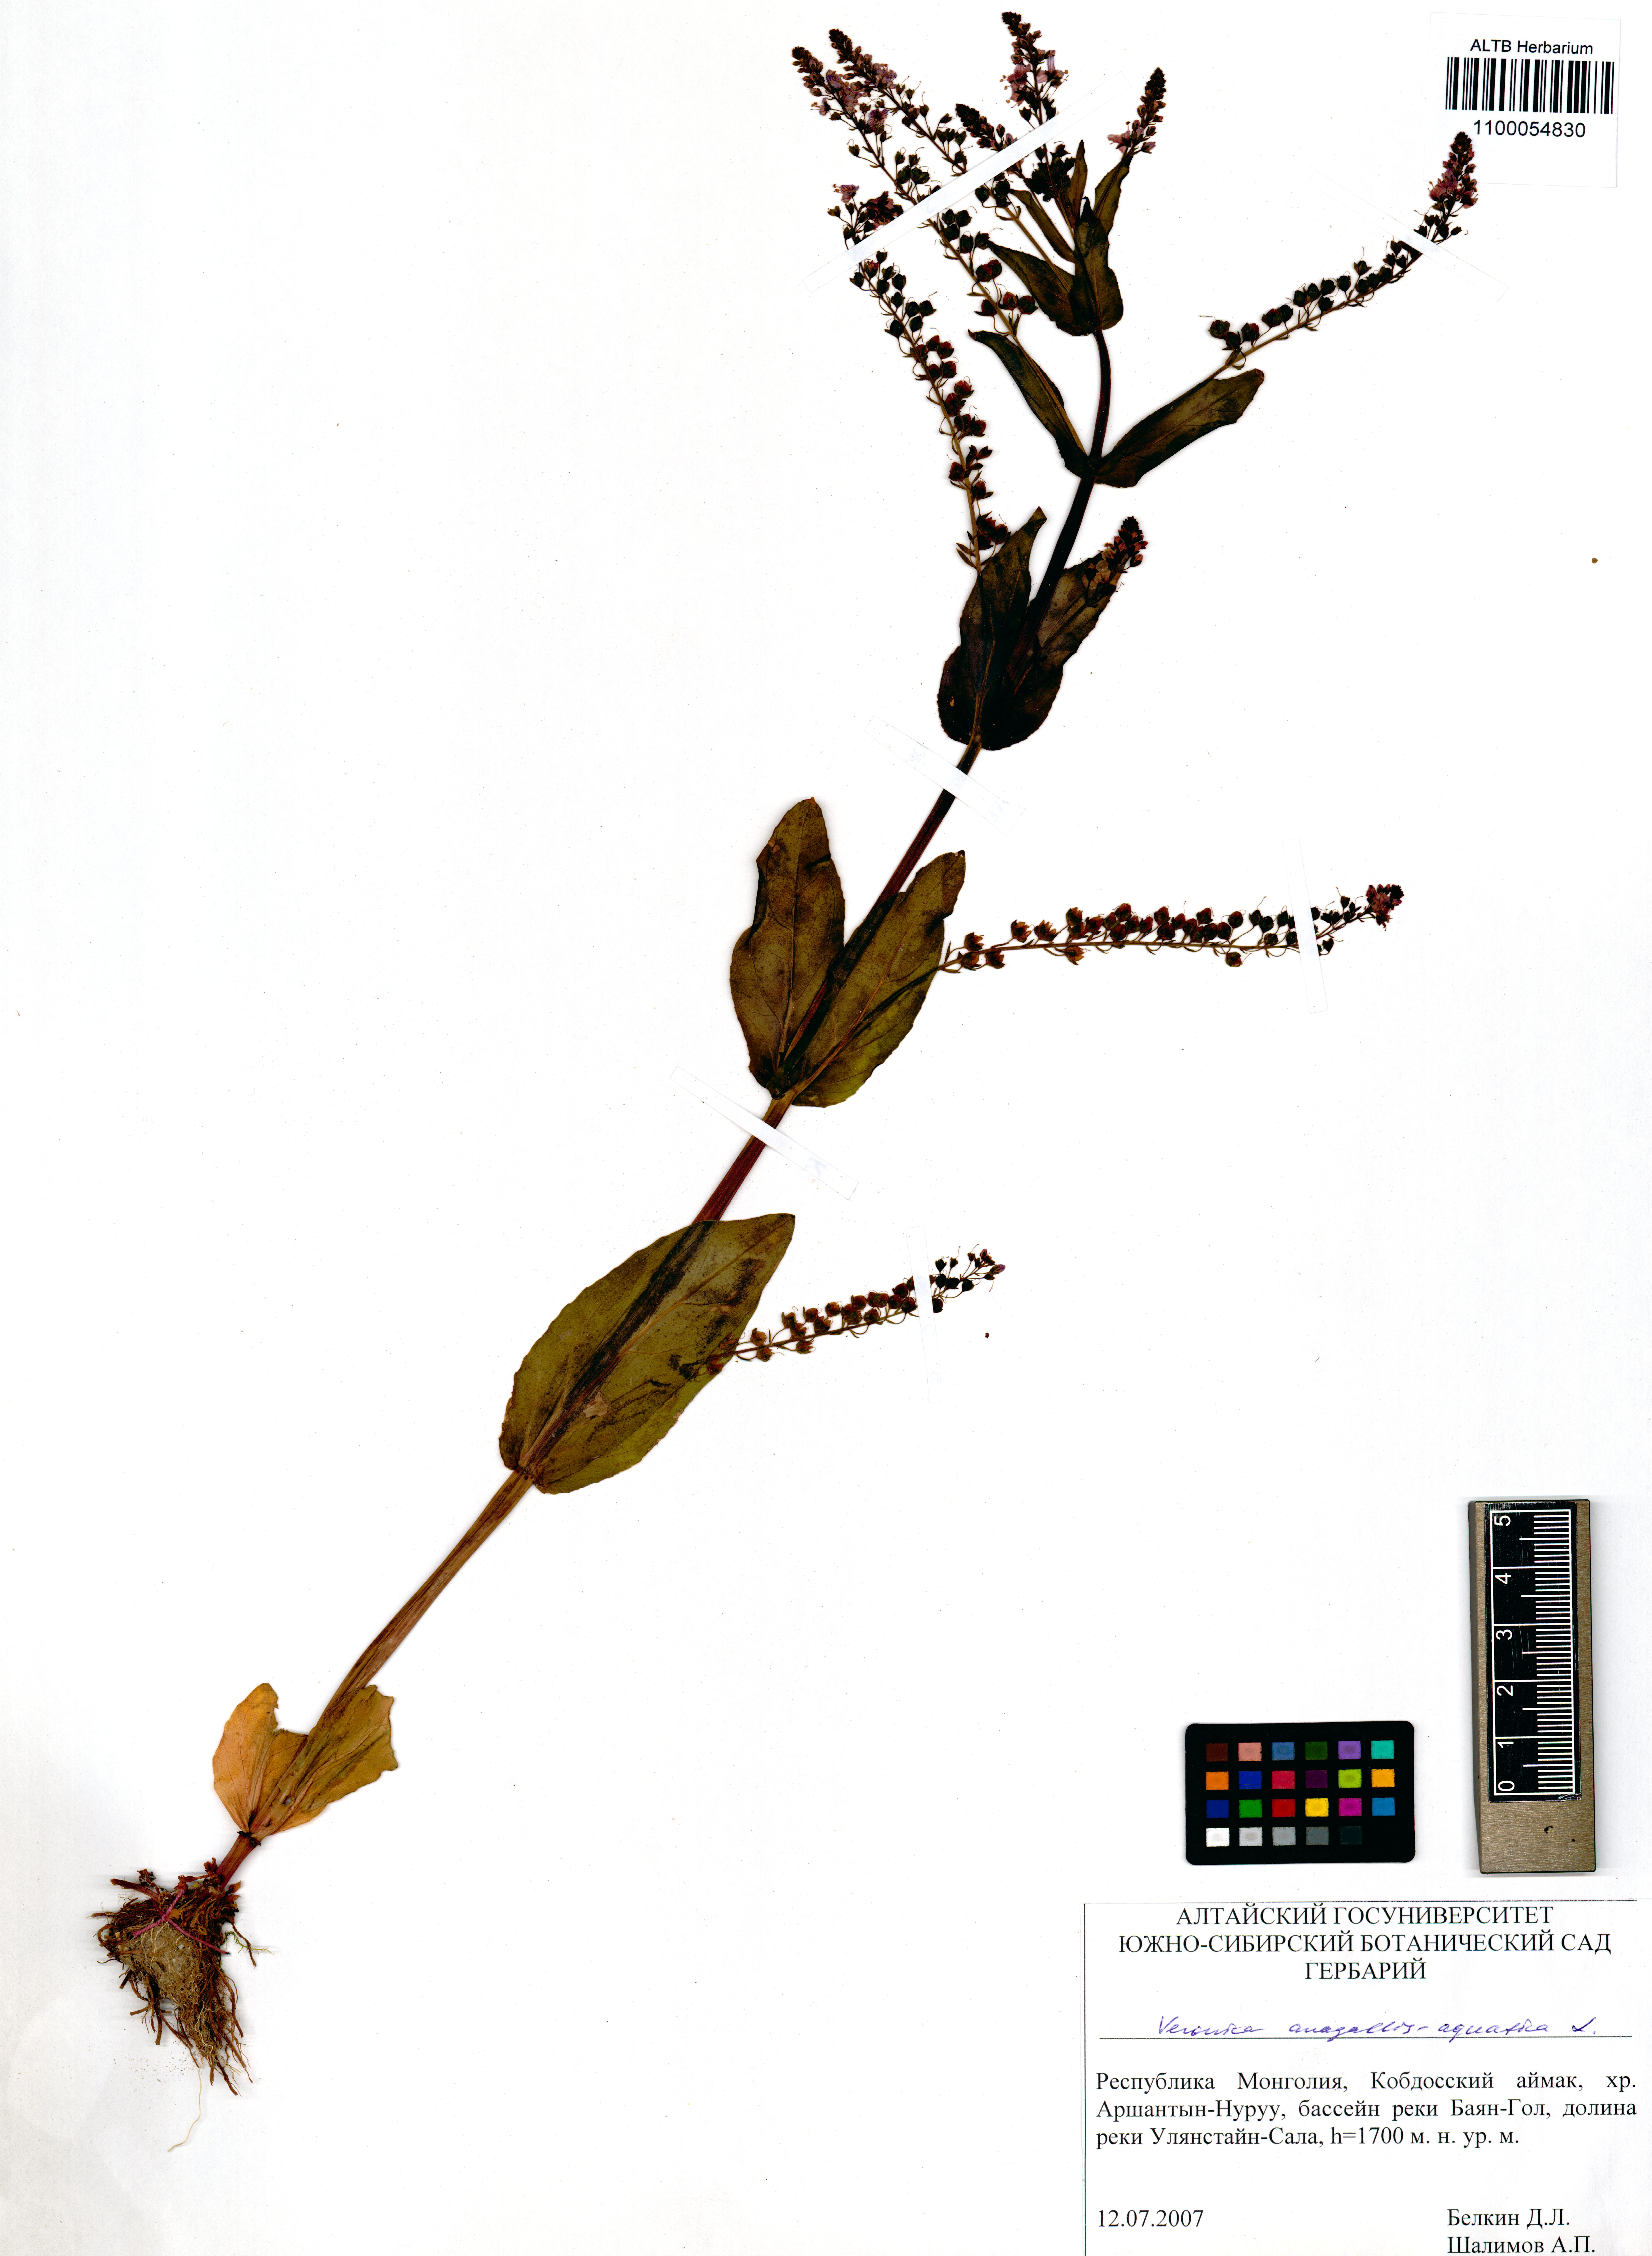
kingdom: Plantae
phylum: Tracheophyta
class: Magnoliopsida
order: Lamiales
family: Plantaginaceae
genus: Veronica
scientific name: Veronica anagallis-aquatica
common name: Water speedwell
